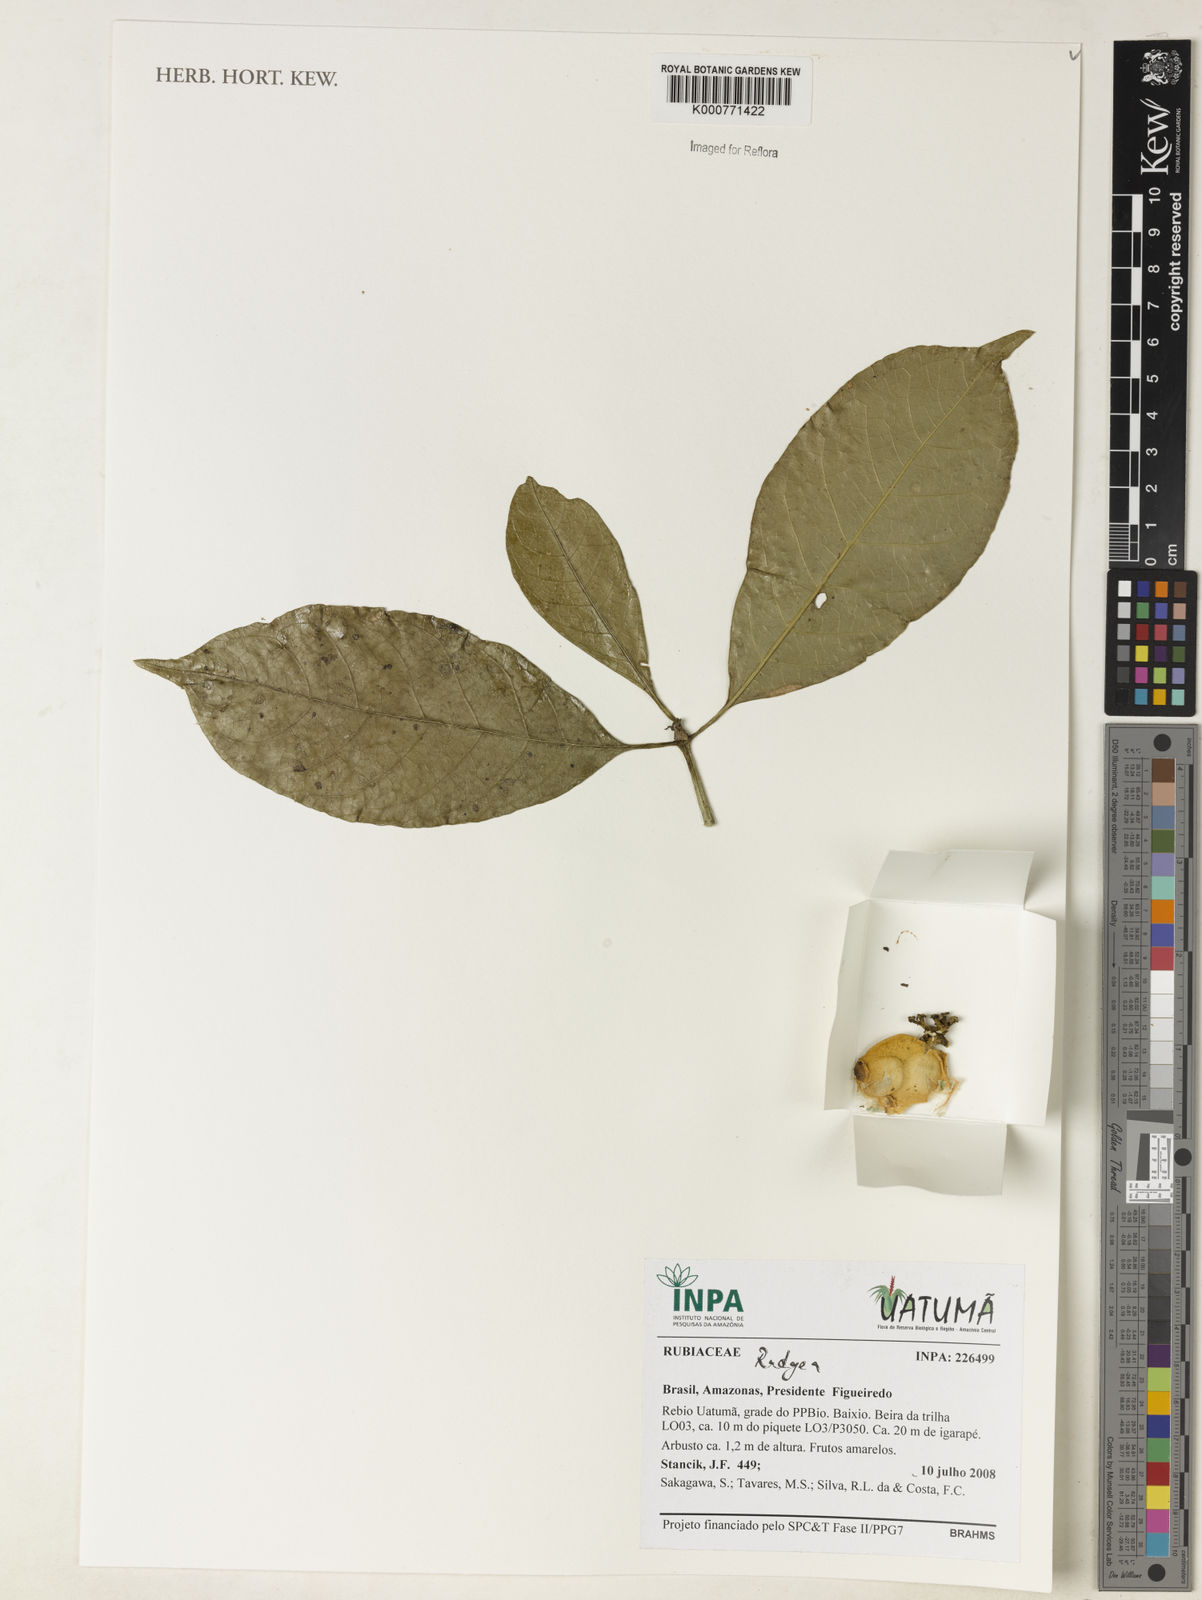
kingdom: Plantae
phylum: Tracheophyta
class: Magnoliopsida
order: Gentianales
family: Rubiaceae
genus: Rudgea
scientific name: Rudgea
